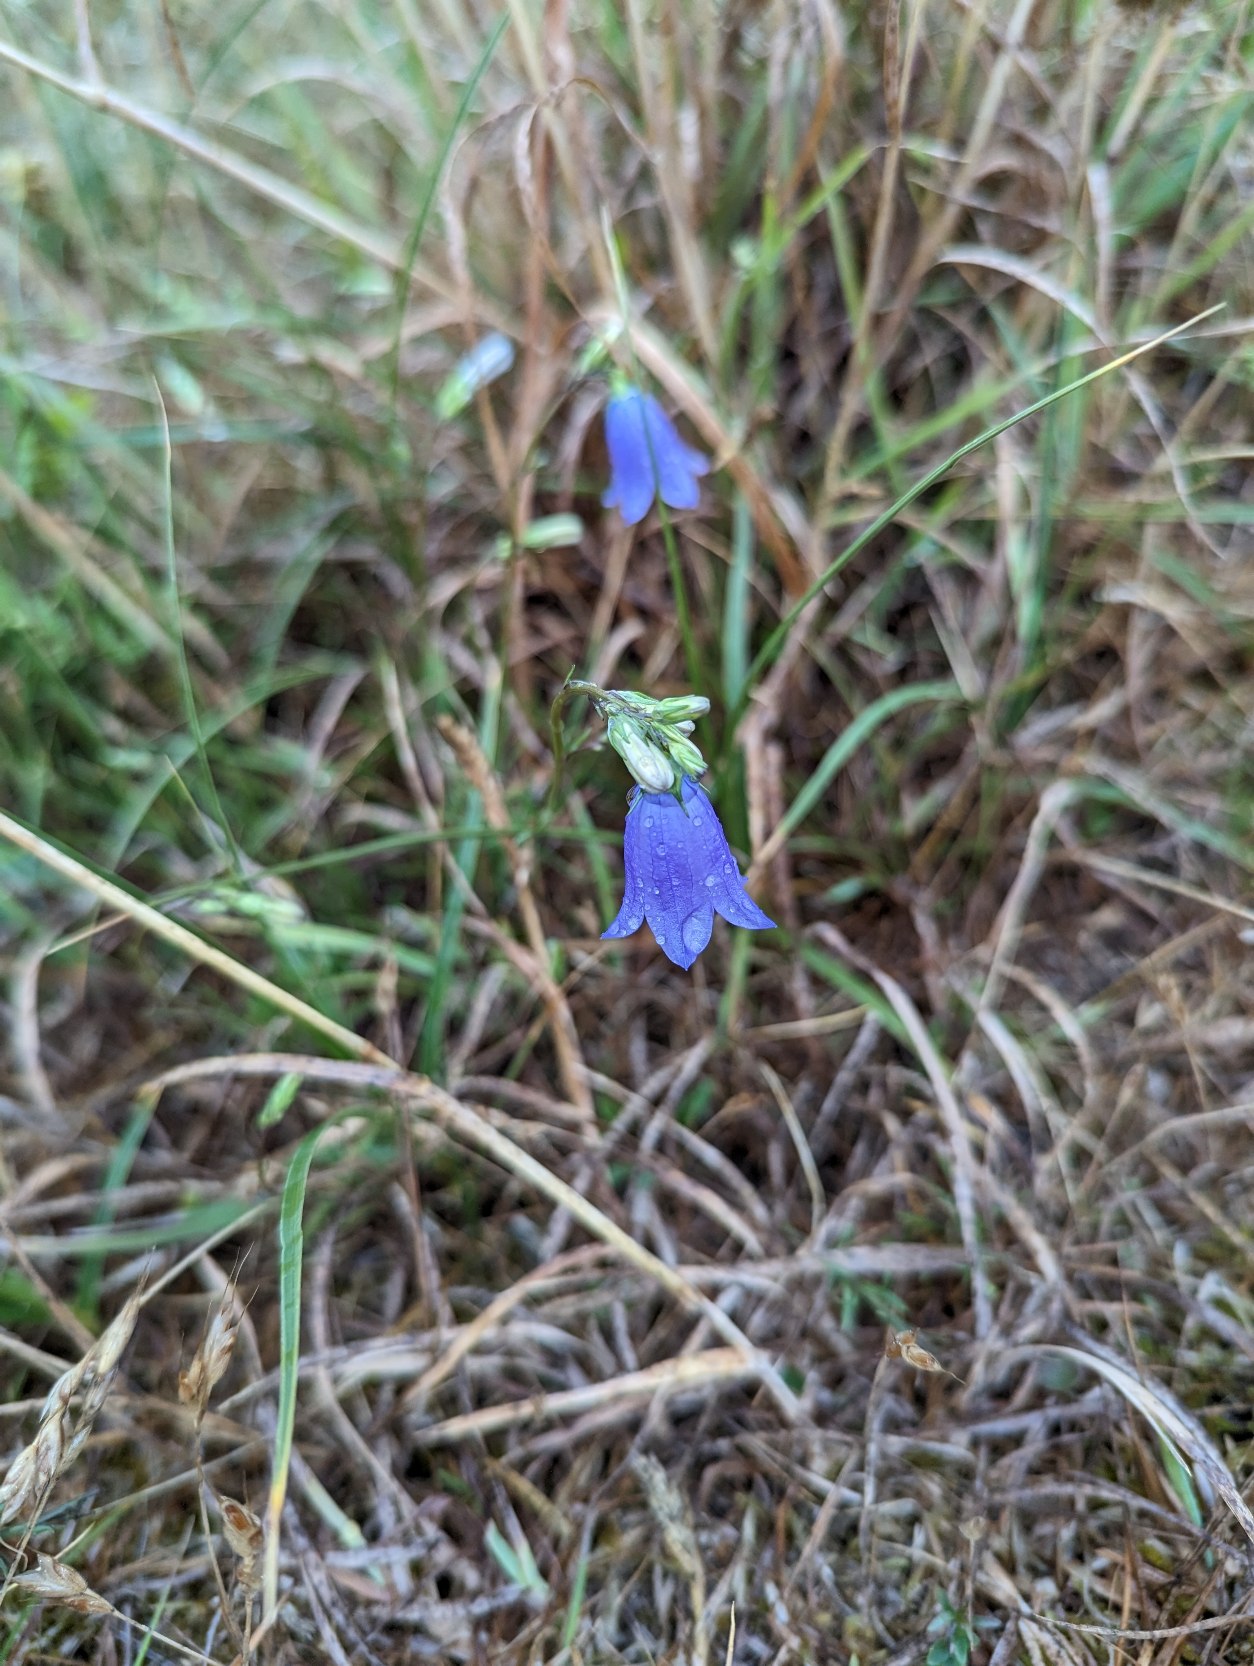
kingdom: Plantae
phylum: Tracheophyta
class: Magnoliopsida
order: Asterales
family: Campanulaceae
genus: Campanula
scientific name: Campanula rotundifolia
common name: Liden klokke
